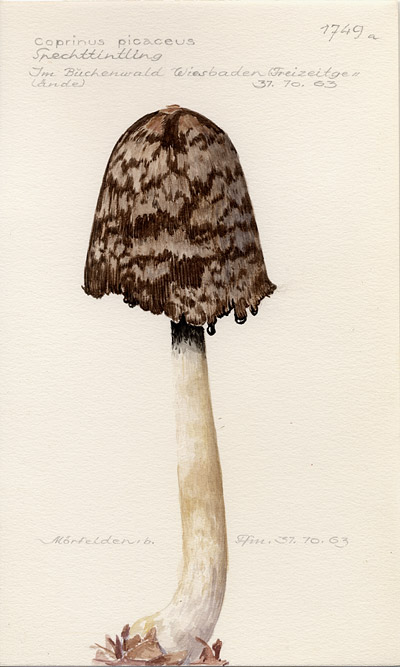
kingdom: Fungi
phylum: Basidiomycota
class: Agaricomycetes
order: Agaricales
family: Psathyrellaceae
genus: Coprinopsis
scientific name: Coprinopsis picacea
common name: Magpie inkcap
